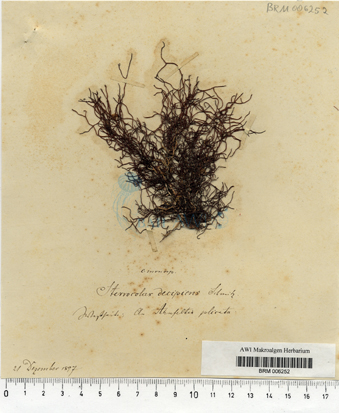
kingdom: Plantae
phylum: Rhodophyta
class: Florideophyceae
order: Ahnfeltiales
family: Ahnfeltiaceae
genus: Ahnfeltia
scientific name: Ahnfeltia plicata
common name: Landlady's wig
